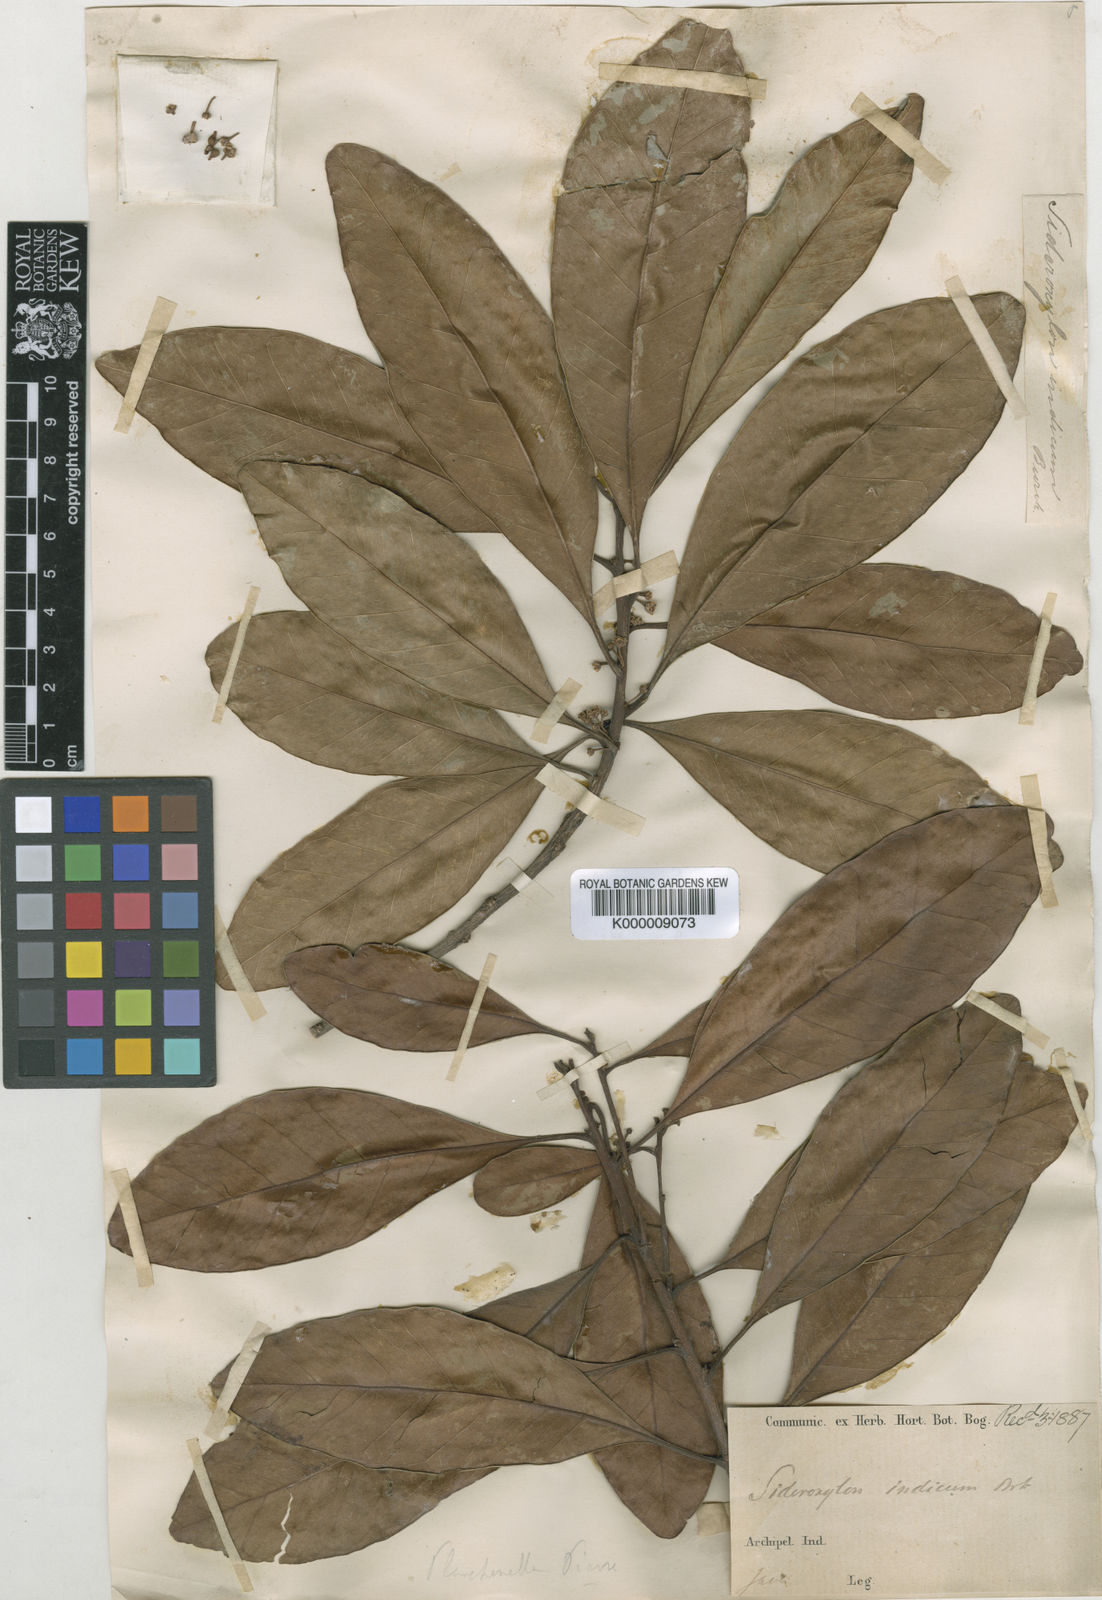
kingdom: Plantae
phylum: Tracheophyta
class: Magnoliopsida
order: Ericales
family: Sapotaceae
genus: Planchonella
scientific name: Planchonella obovata
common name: Black-ash
